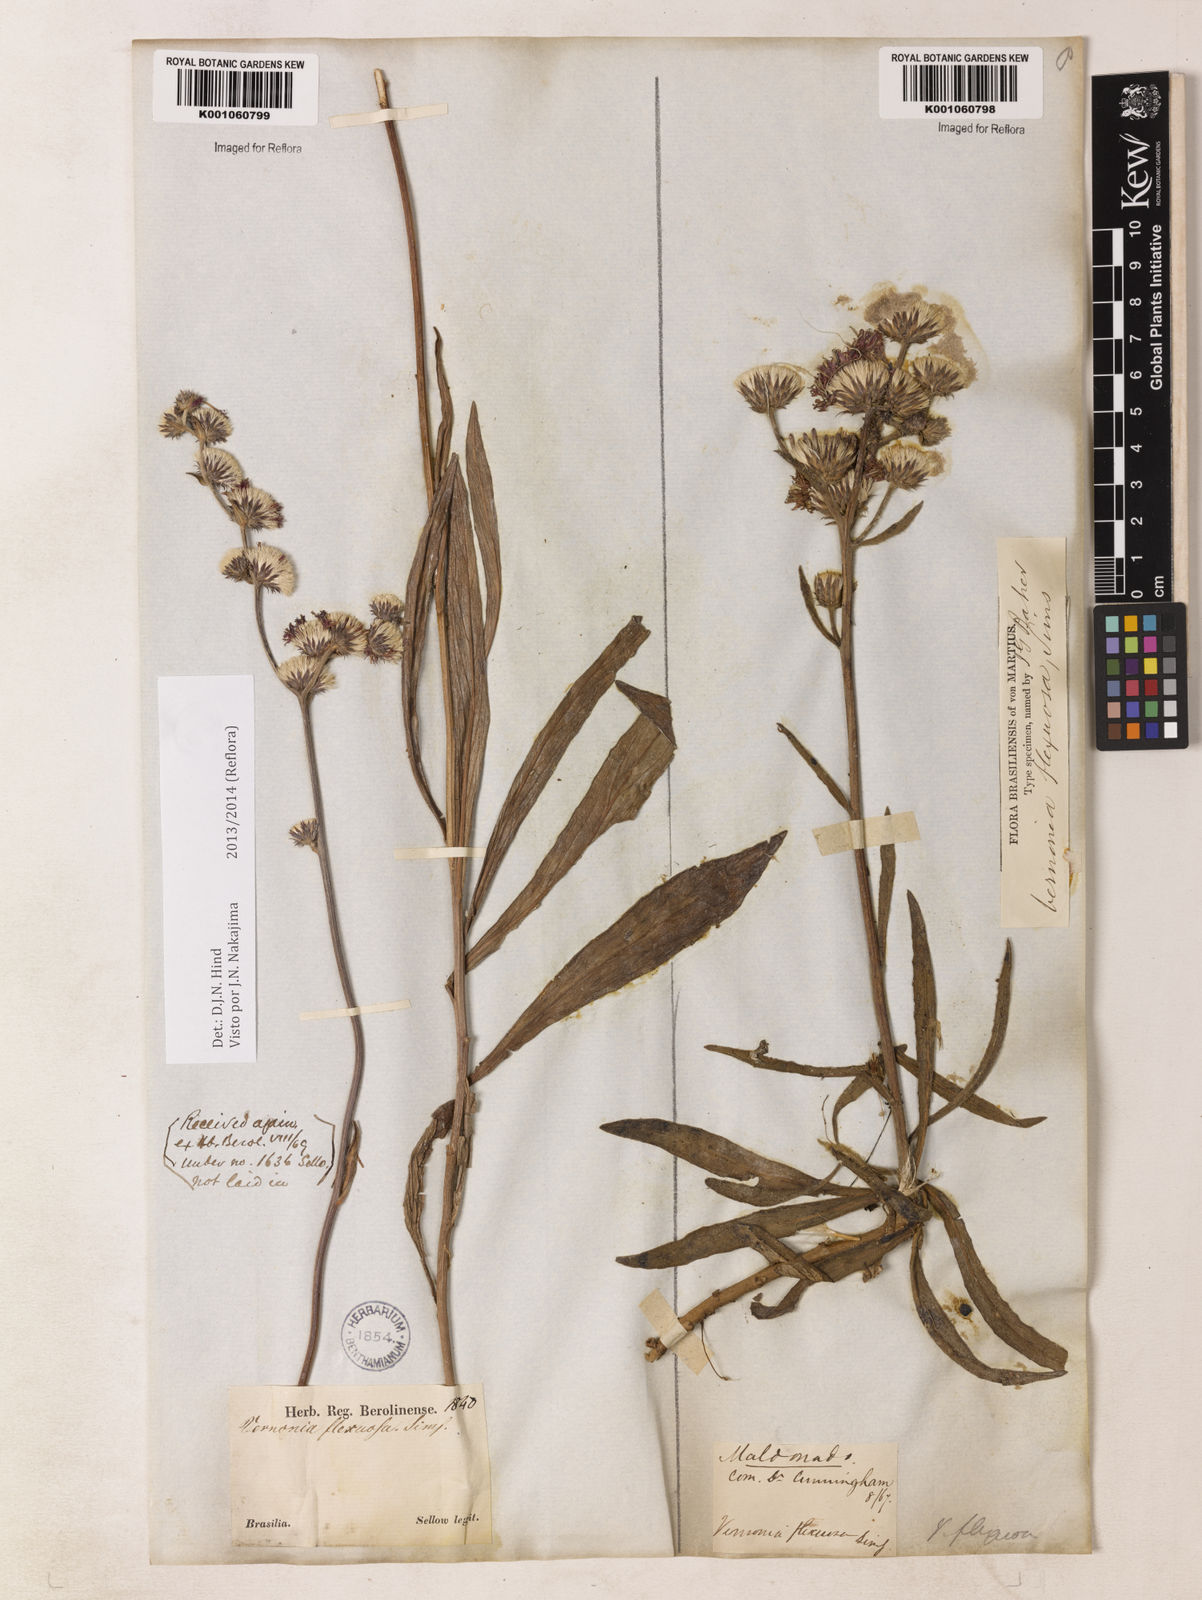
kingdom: Plantae
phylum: Tracheophyta
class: Magnoliopsida
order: Asterales
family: Asteraceae
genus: Chrysolaena
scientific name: Chrysolaena flexuosa
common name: Zig-zag vernonia
